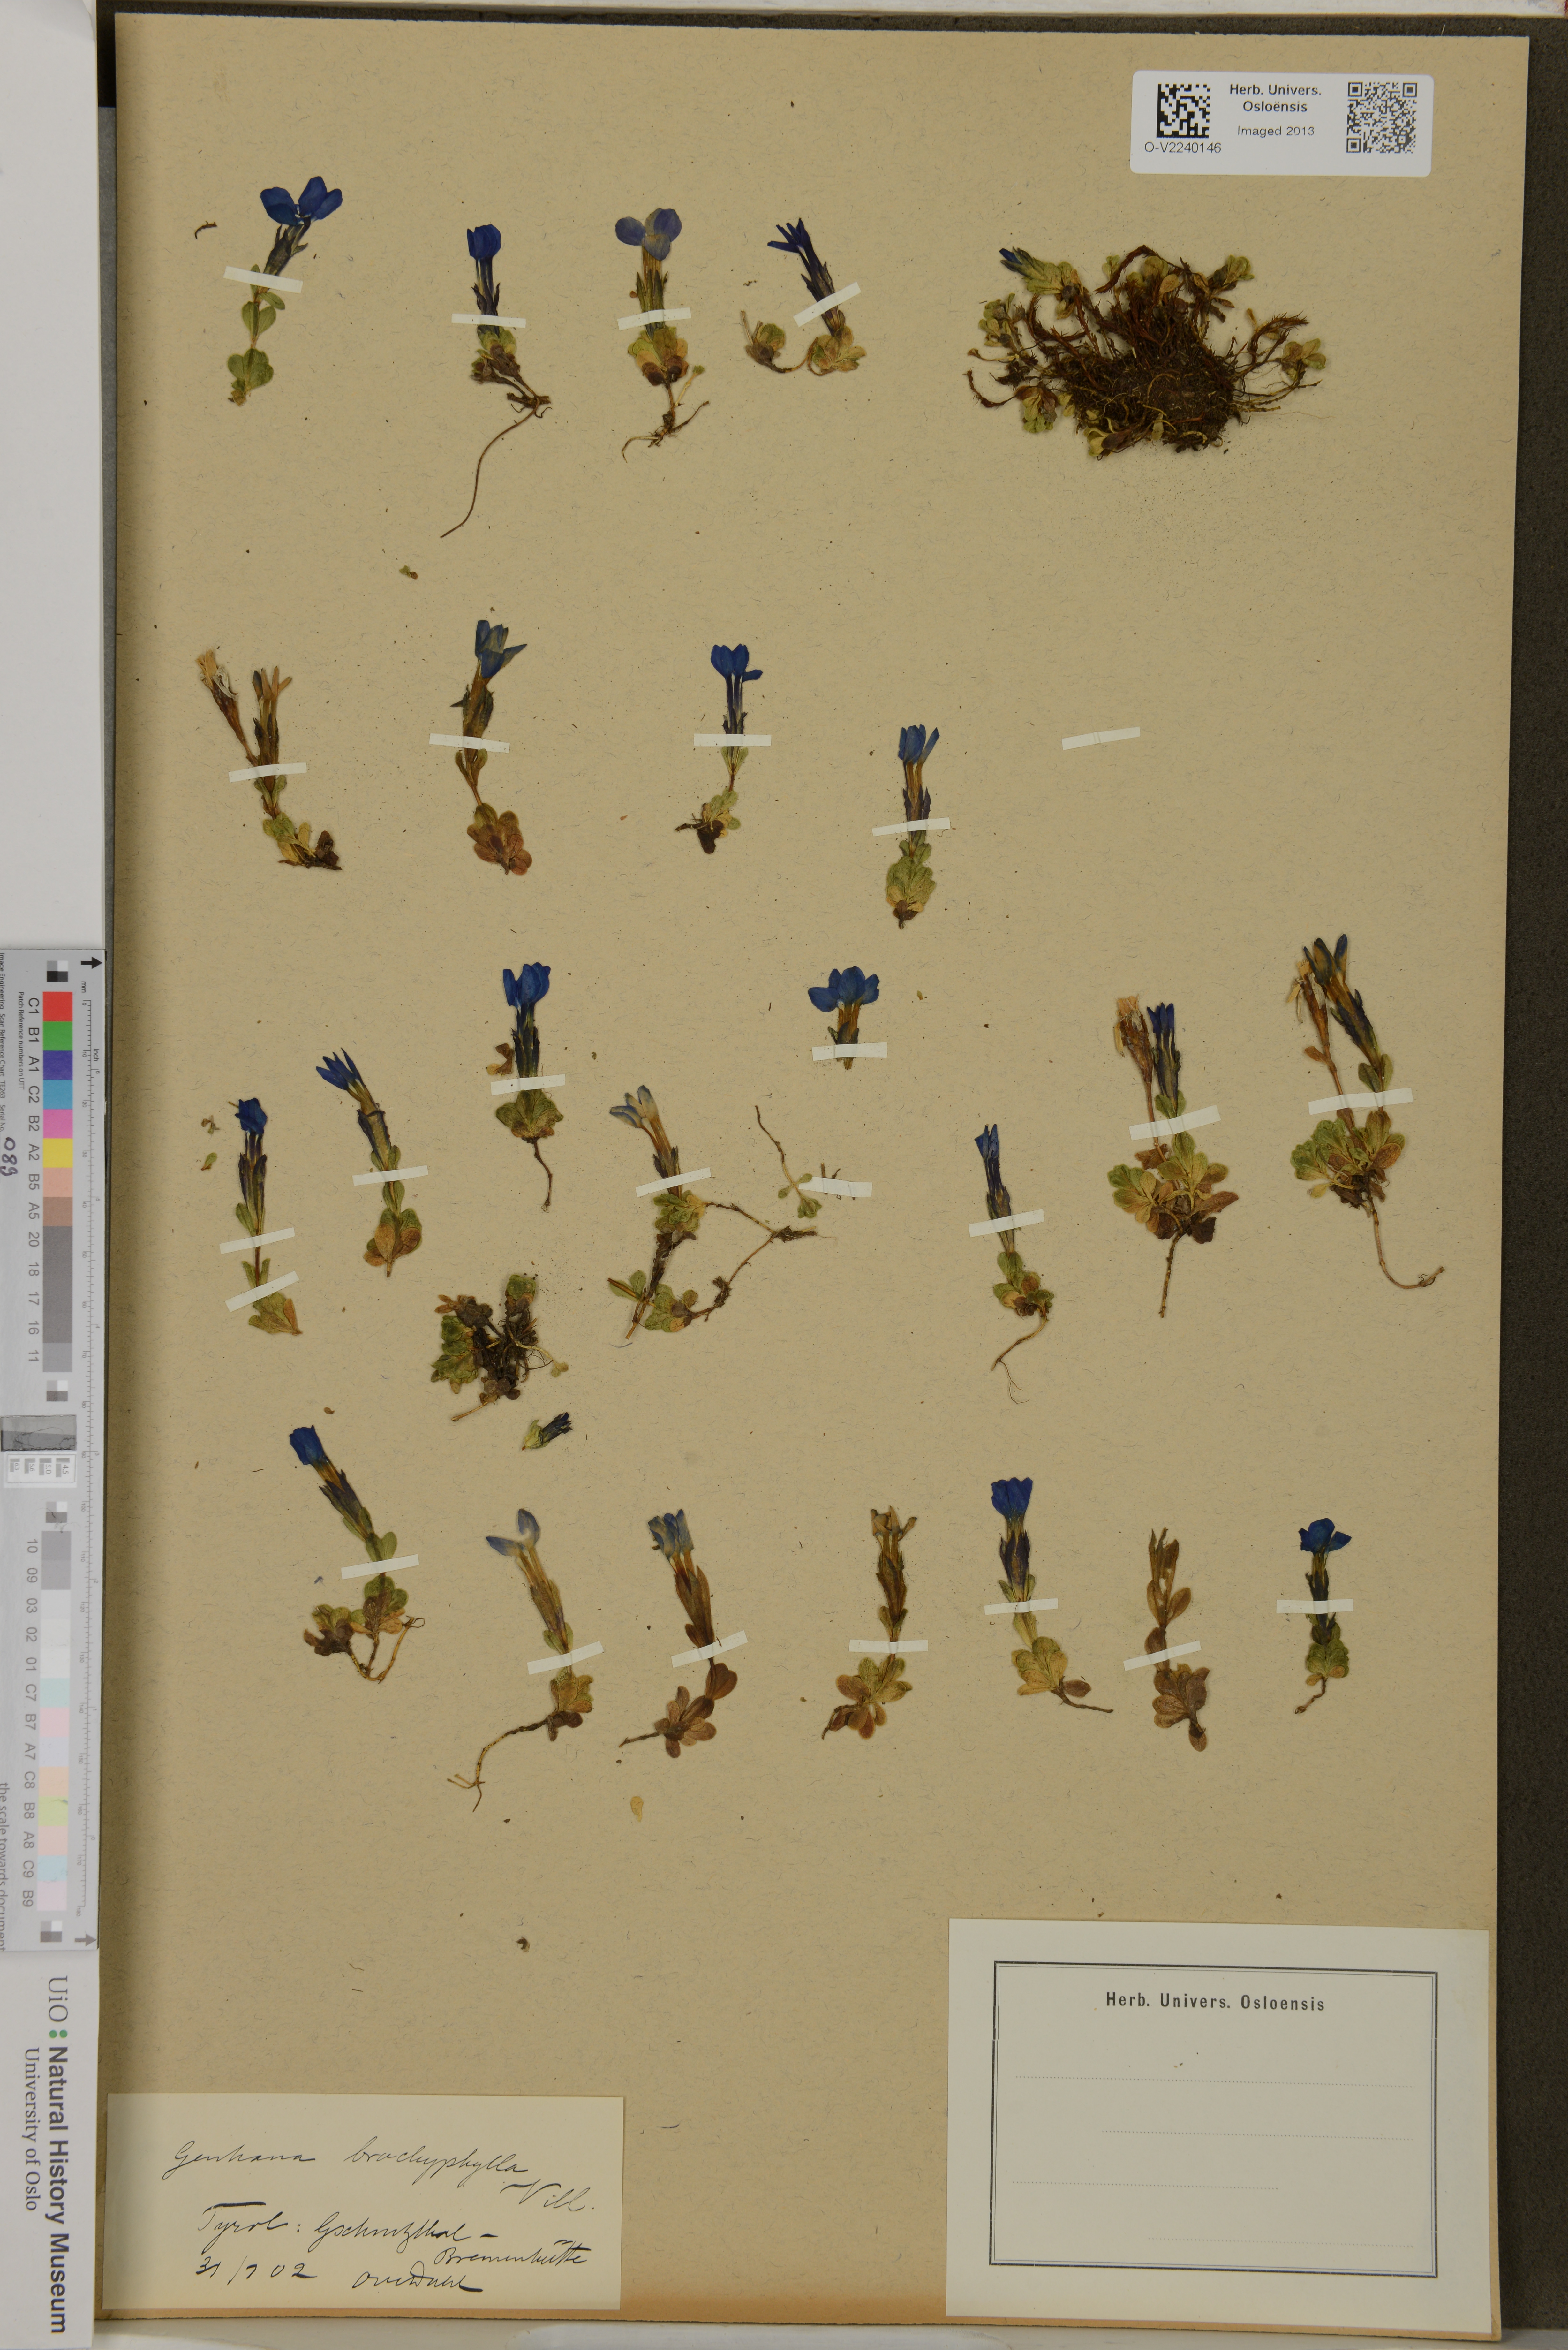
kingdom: Plantae
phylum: Tracheophyta
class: Magnoliopsida
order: Gentianales
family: Gentianaceae
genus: Gentiana
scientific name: Gentiana brachyphylla
